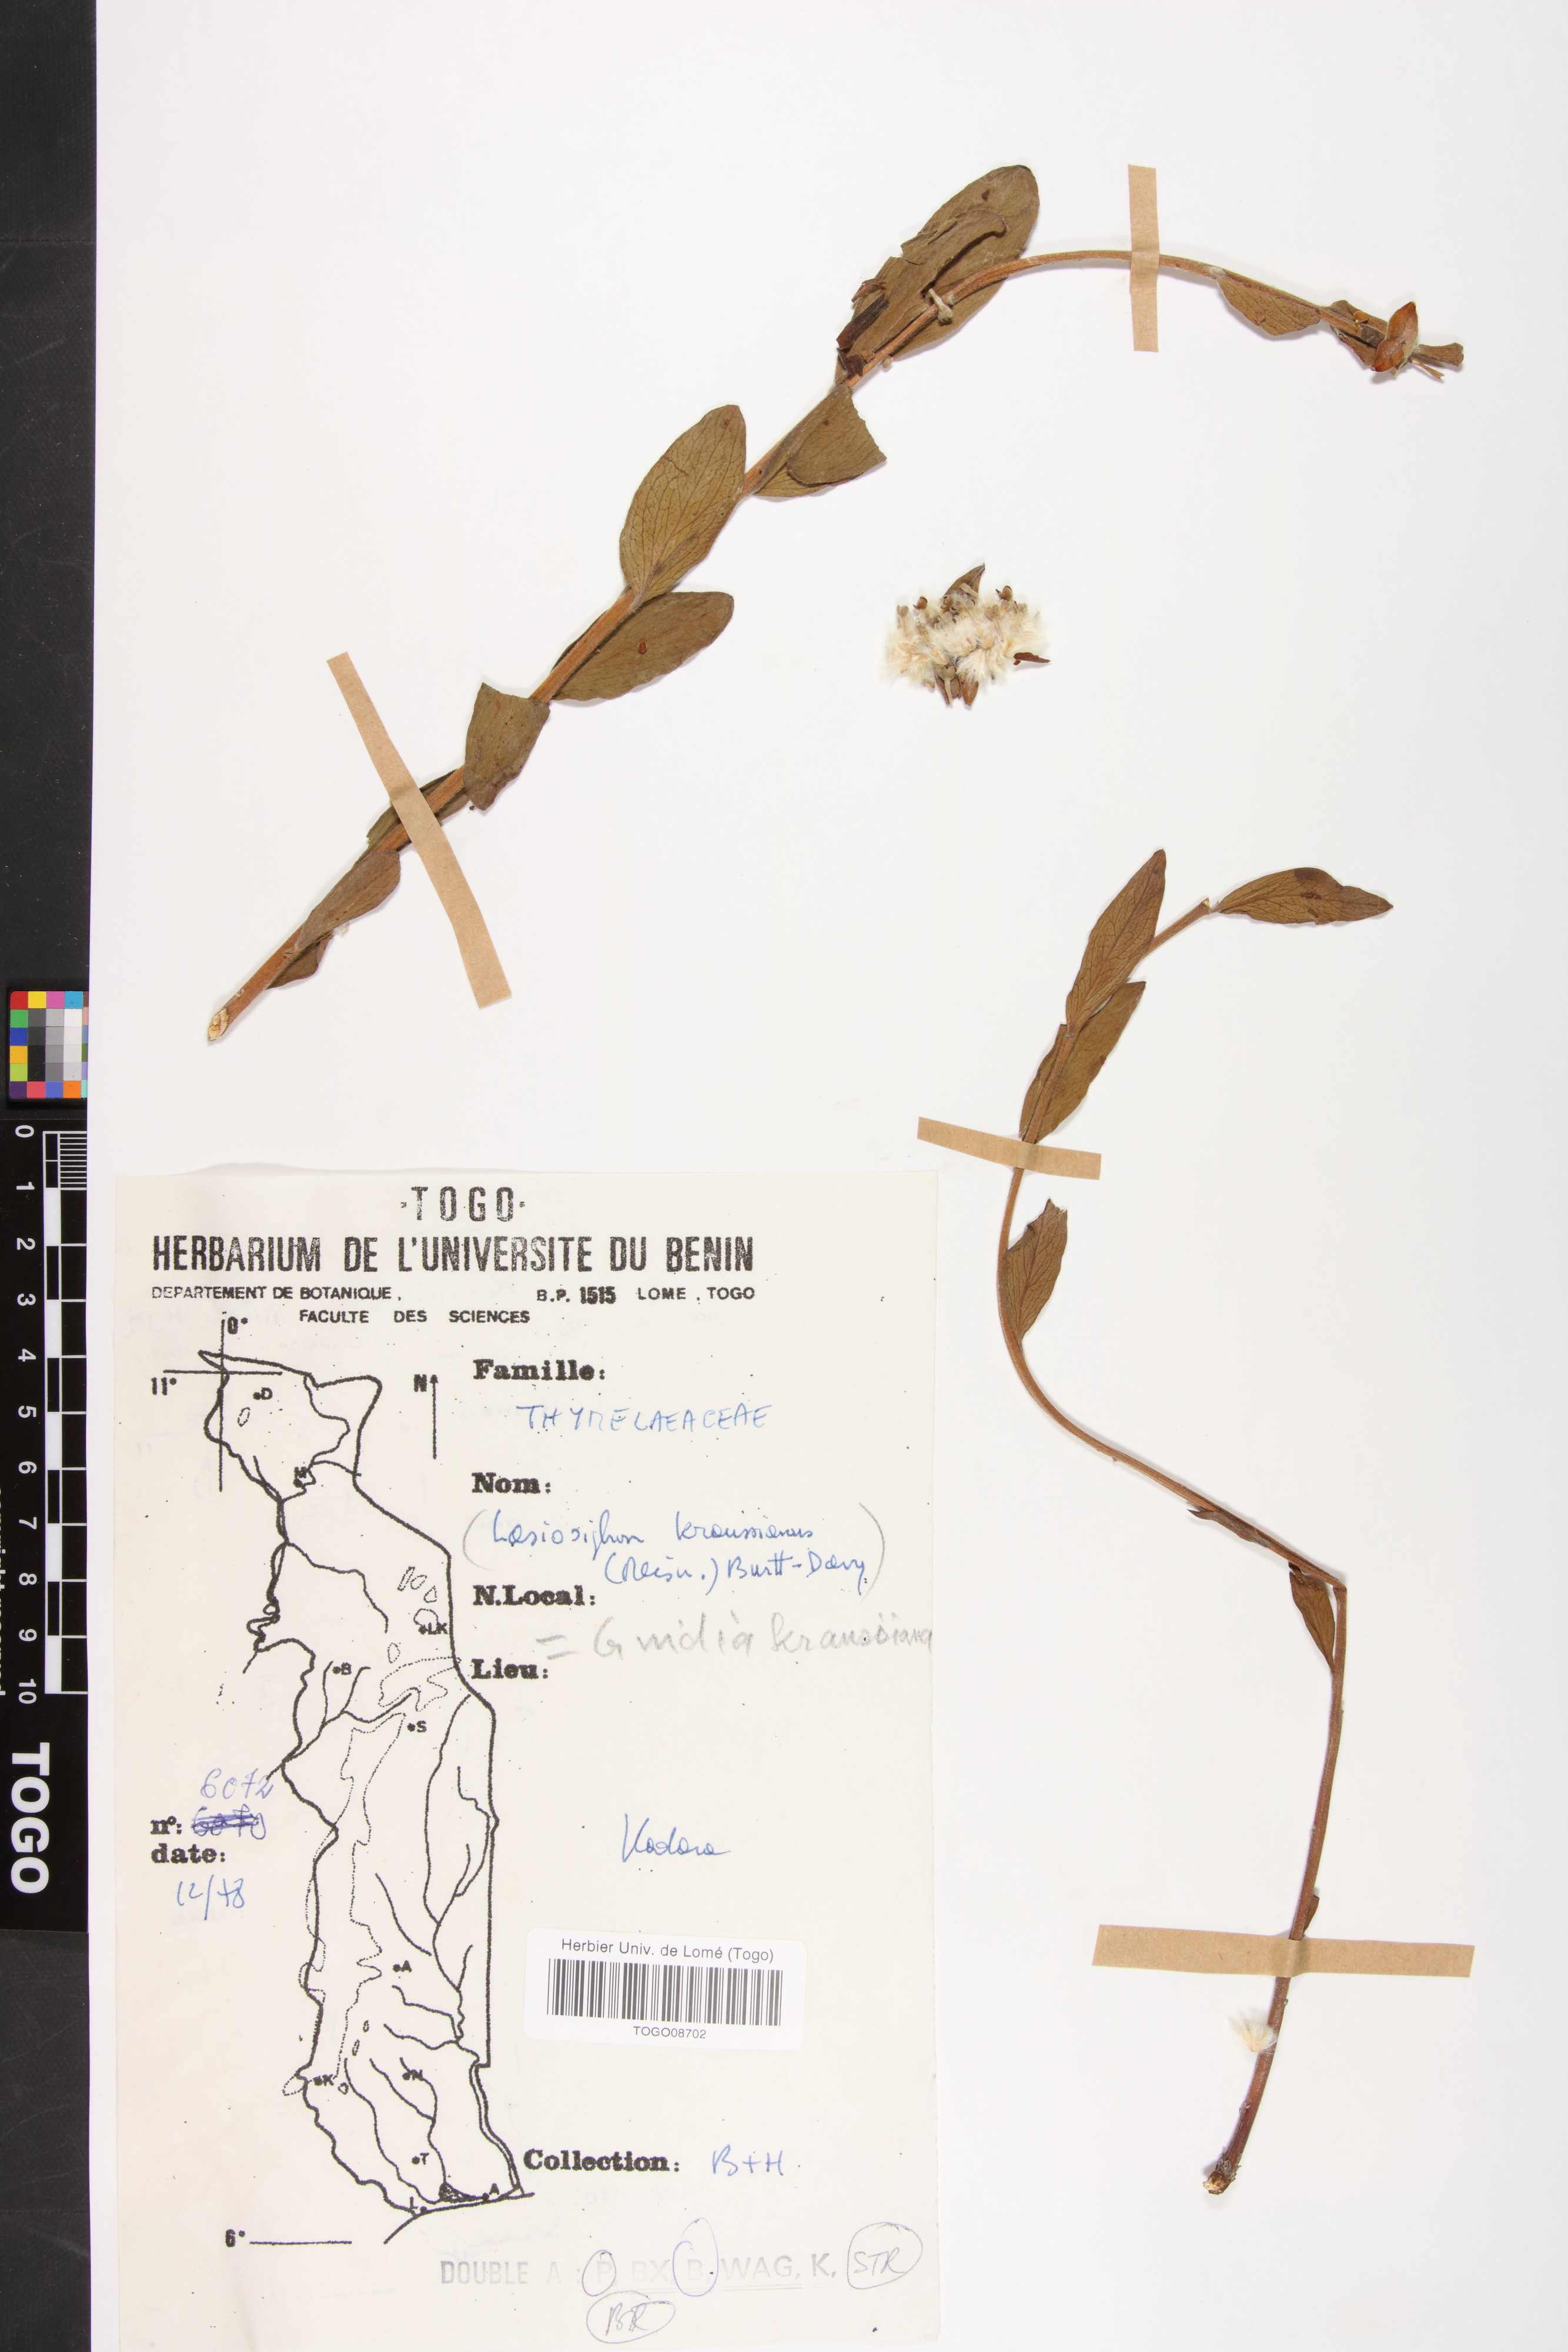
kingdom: Plantae
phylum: Tracheophyta
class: Magnoliopsida
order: Malvales
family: Thymelaeaceae
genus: Gnidia
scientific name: Gnidia kraussiana
